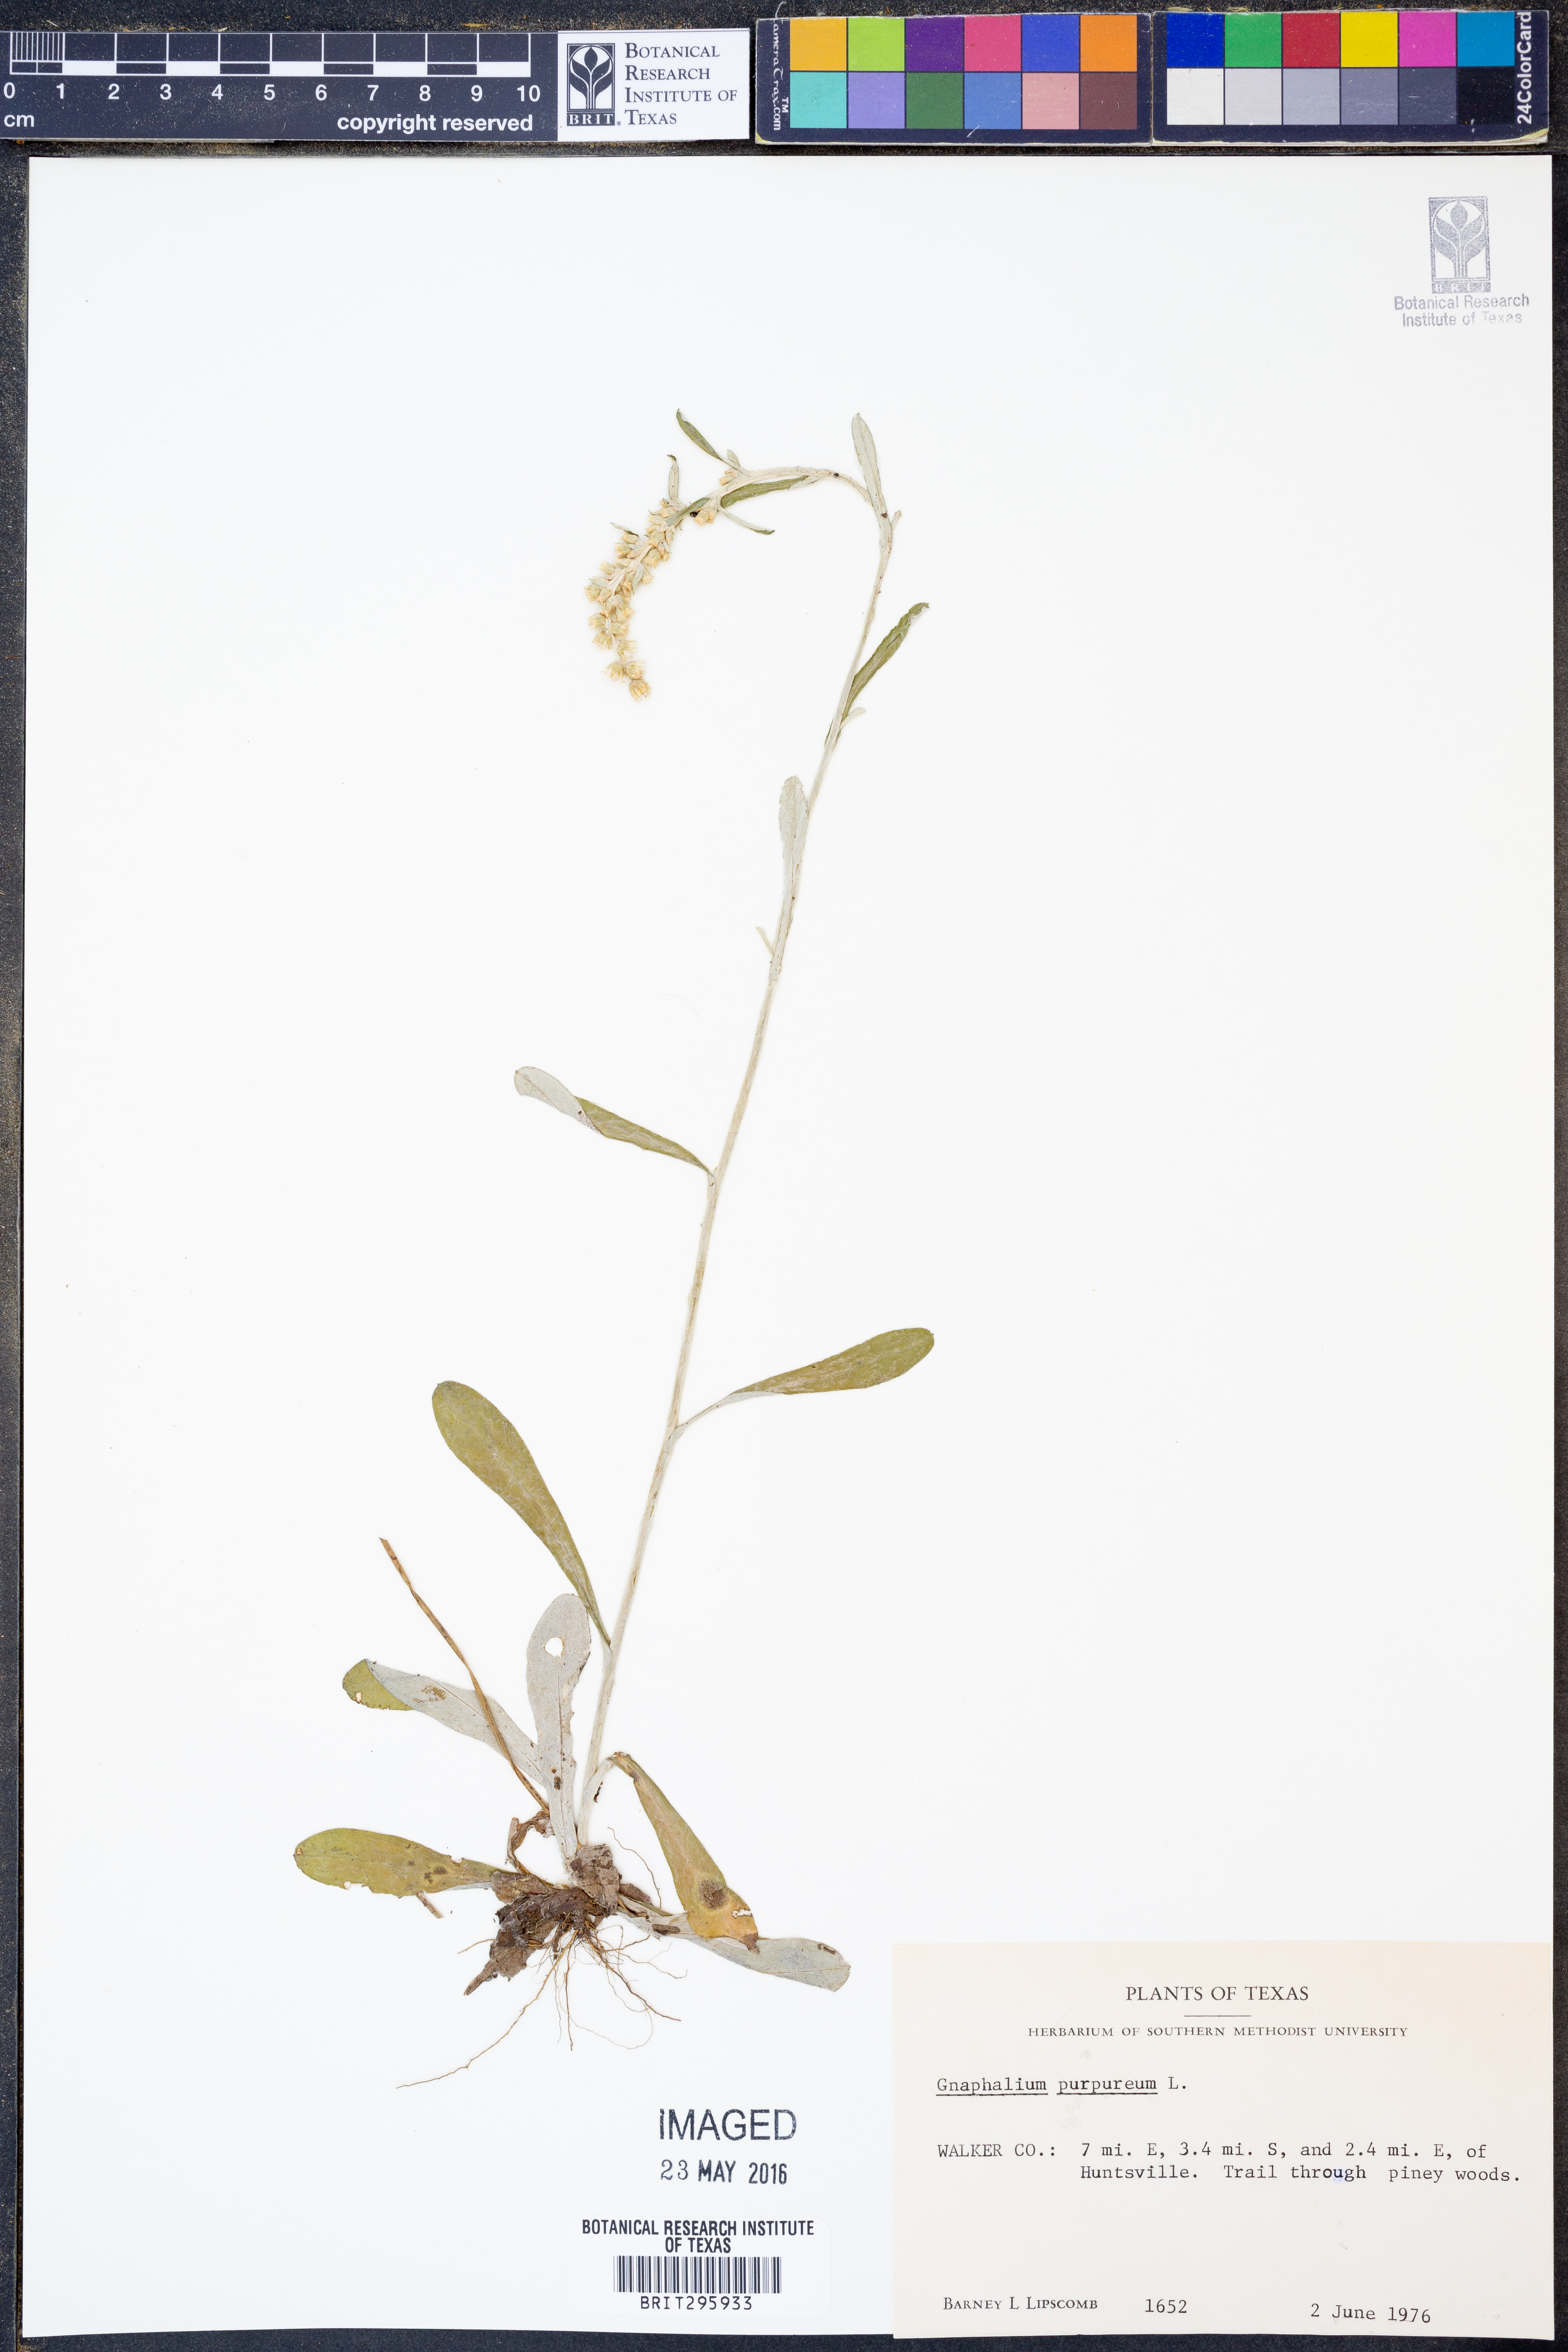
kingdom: Plantae
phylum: Tracheophyta
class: Magnoliopsida
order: Asterales
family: Asteraceae
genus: Gamochaeta
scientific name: Gamochaeta purpurea
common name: Purple cudweed
